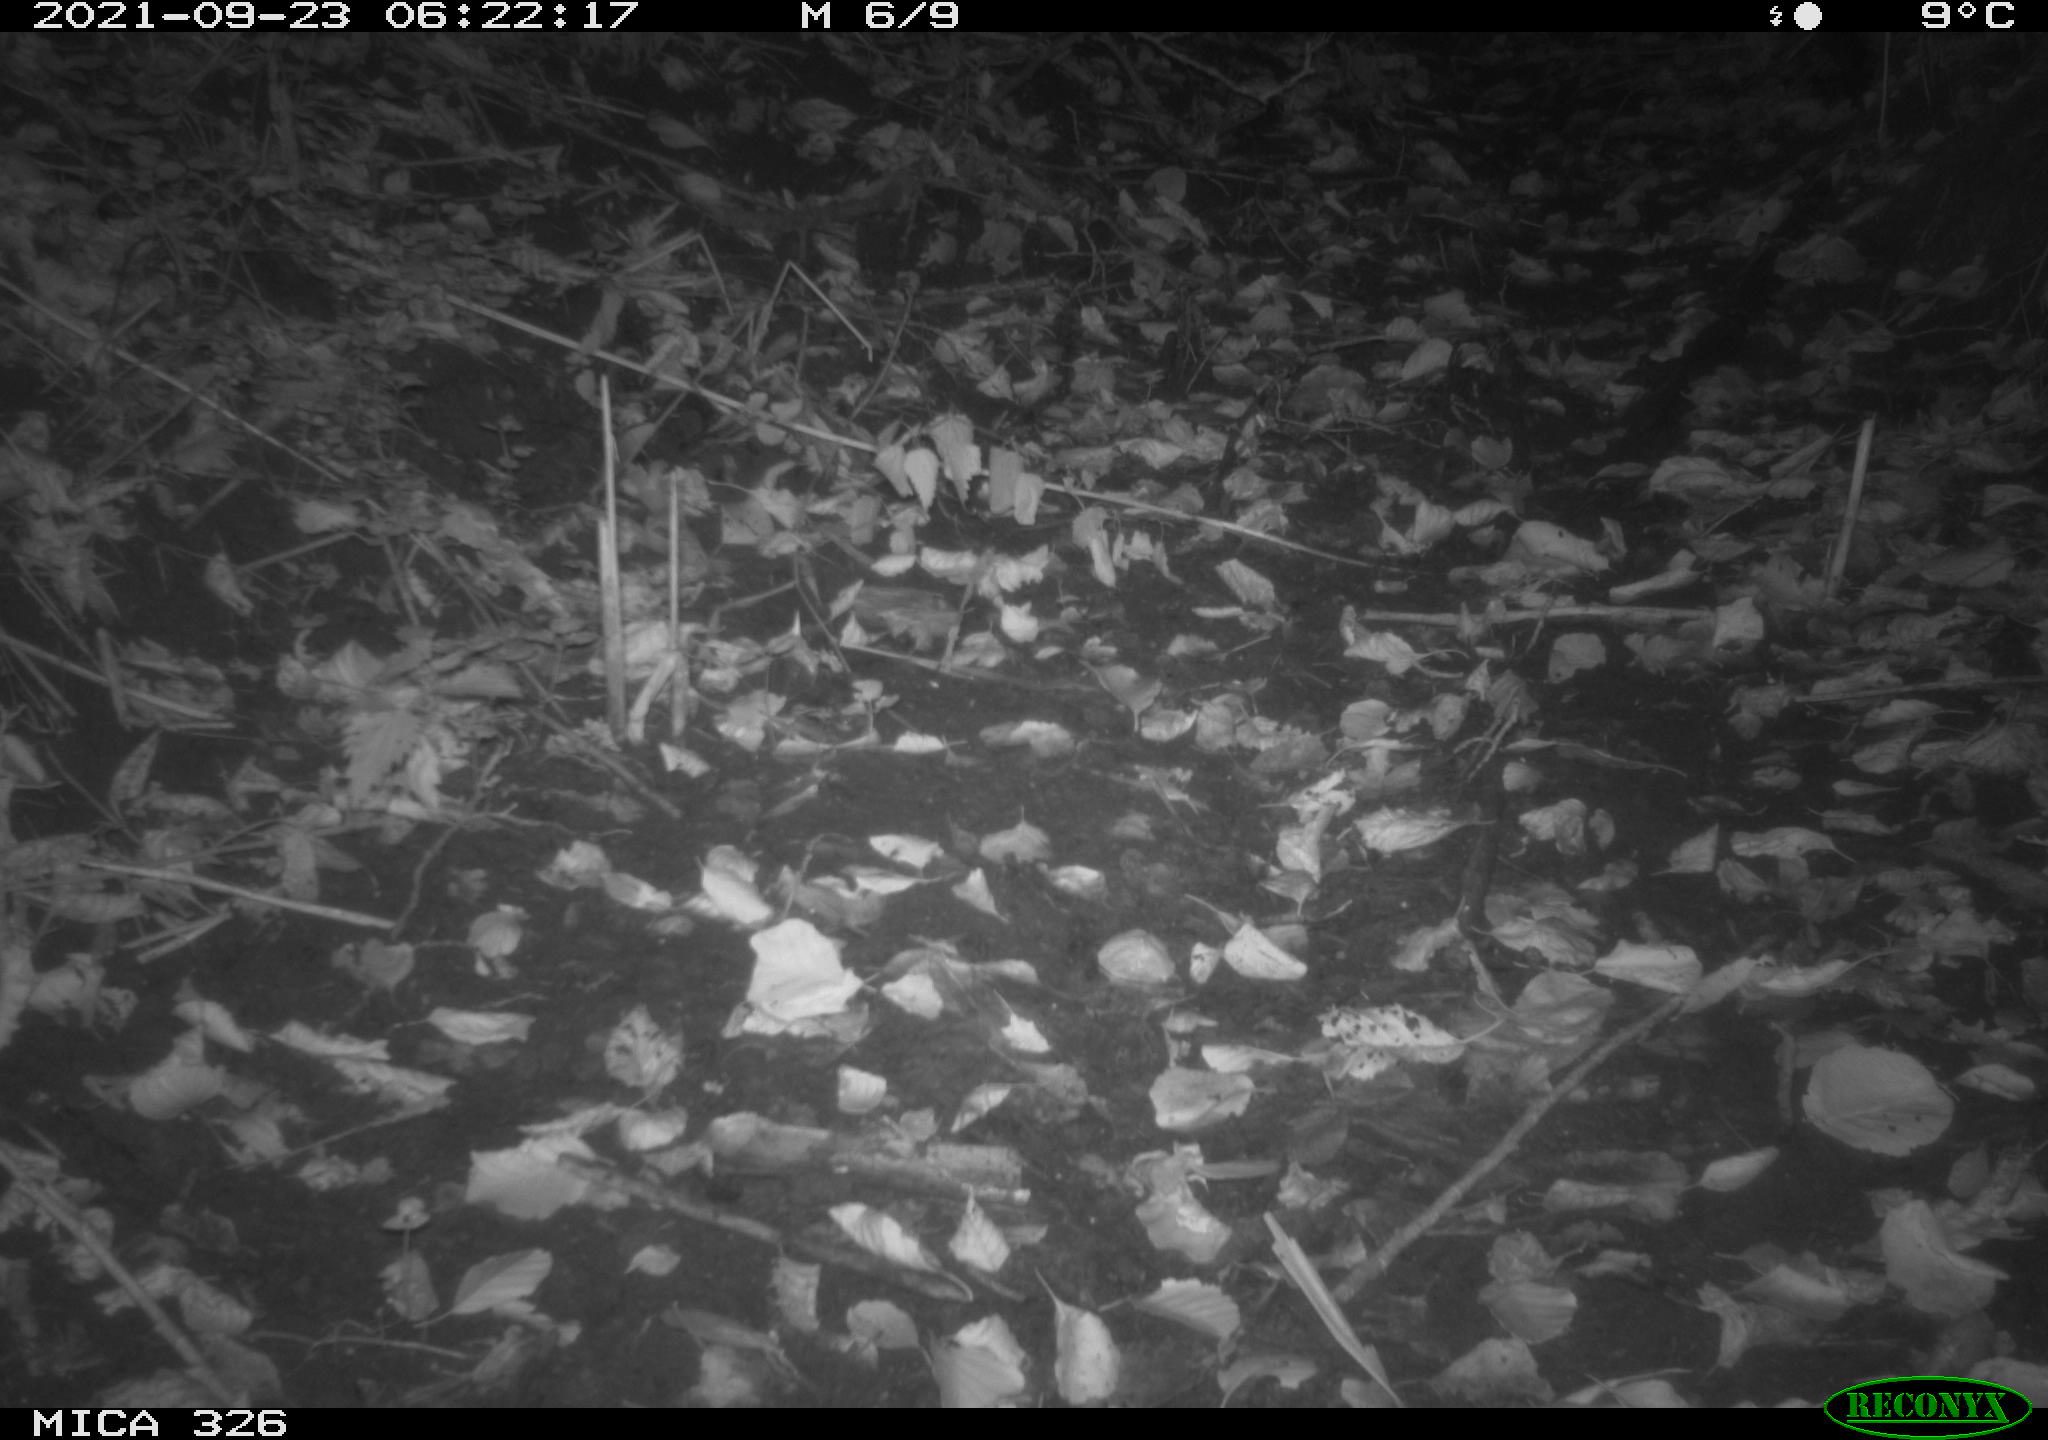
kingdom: Animalia
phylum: Chordata
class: Mammalia
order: Rodentia
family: Muridae
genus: Rattus
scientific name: Rattus norvegicus
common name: Brown rat
